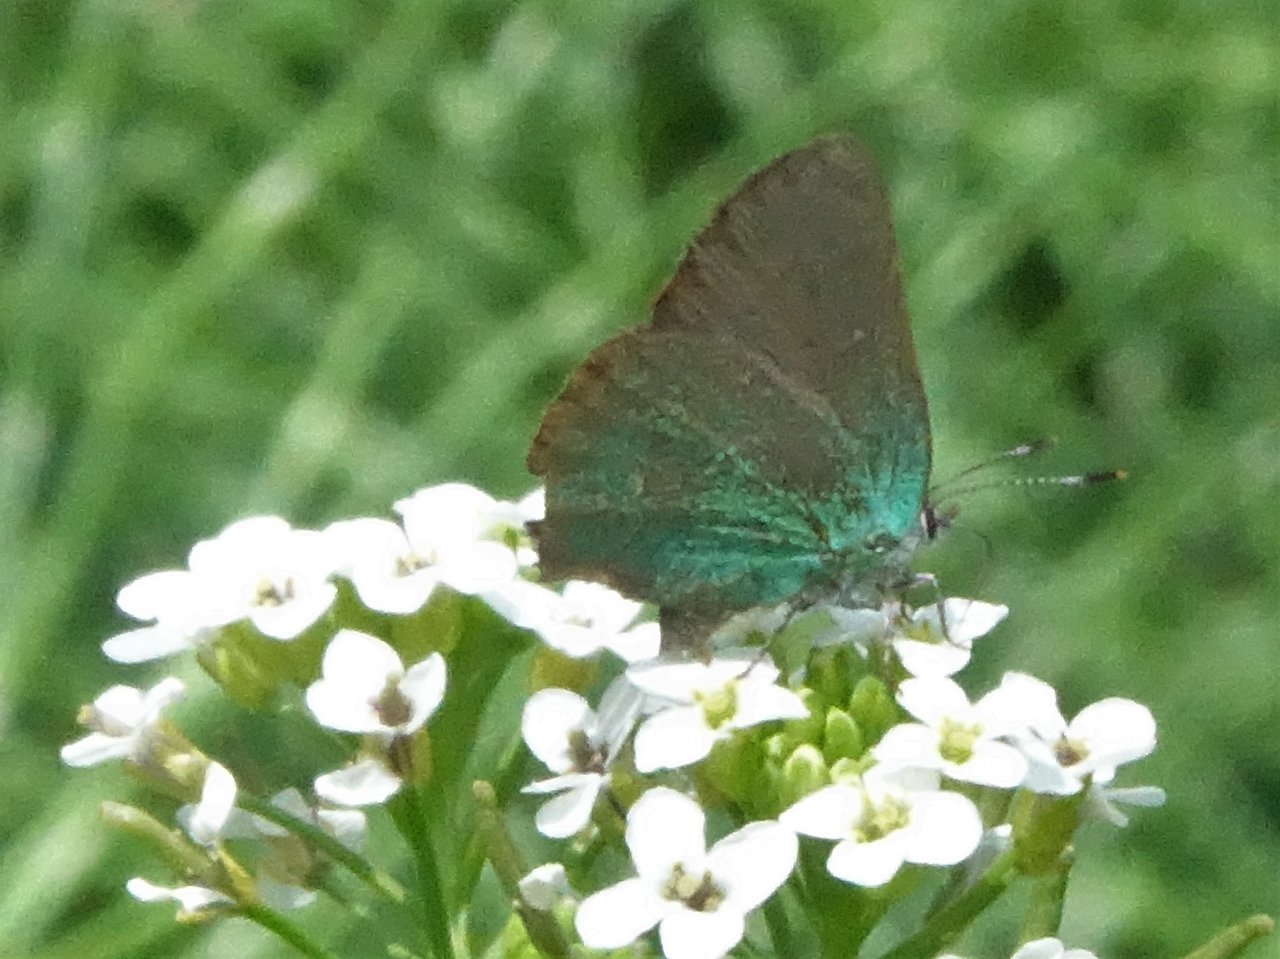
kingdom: Animalia
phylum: Arthropoda
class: Insecta
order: Lepidoptera
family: Lycaenidae
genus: Callophrys
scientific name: Callophrys affinis
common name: Western Green Hairstreak
